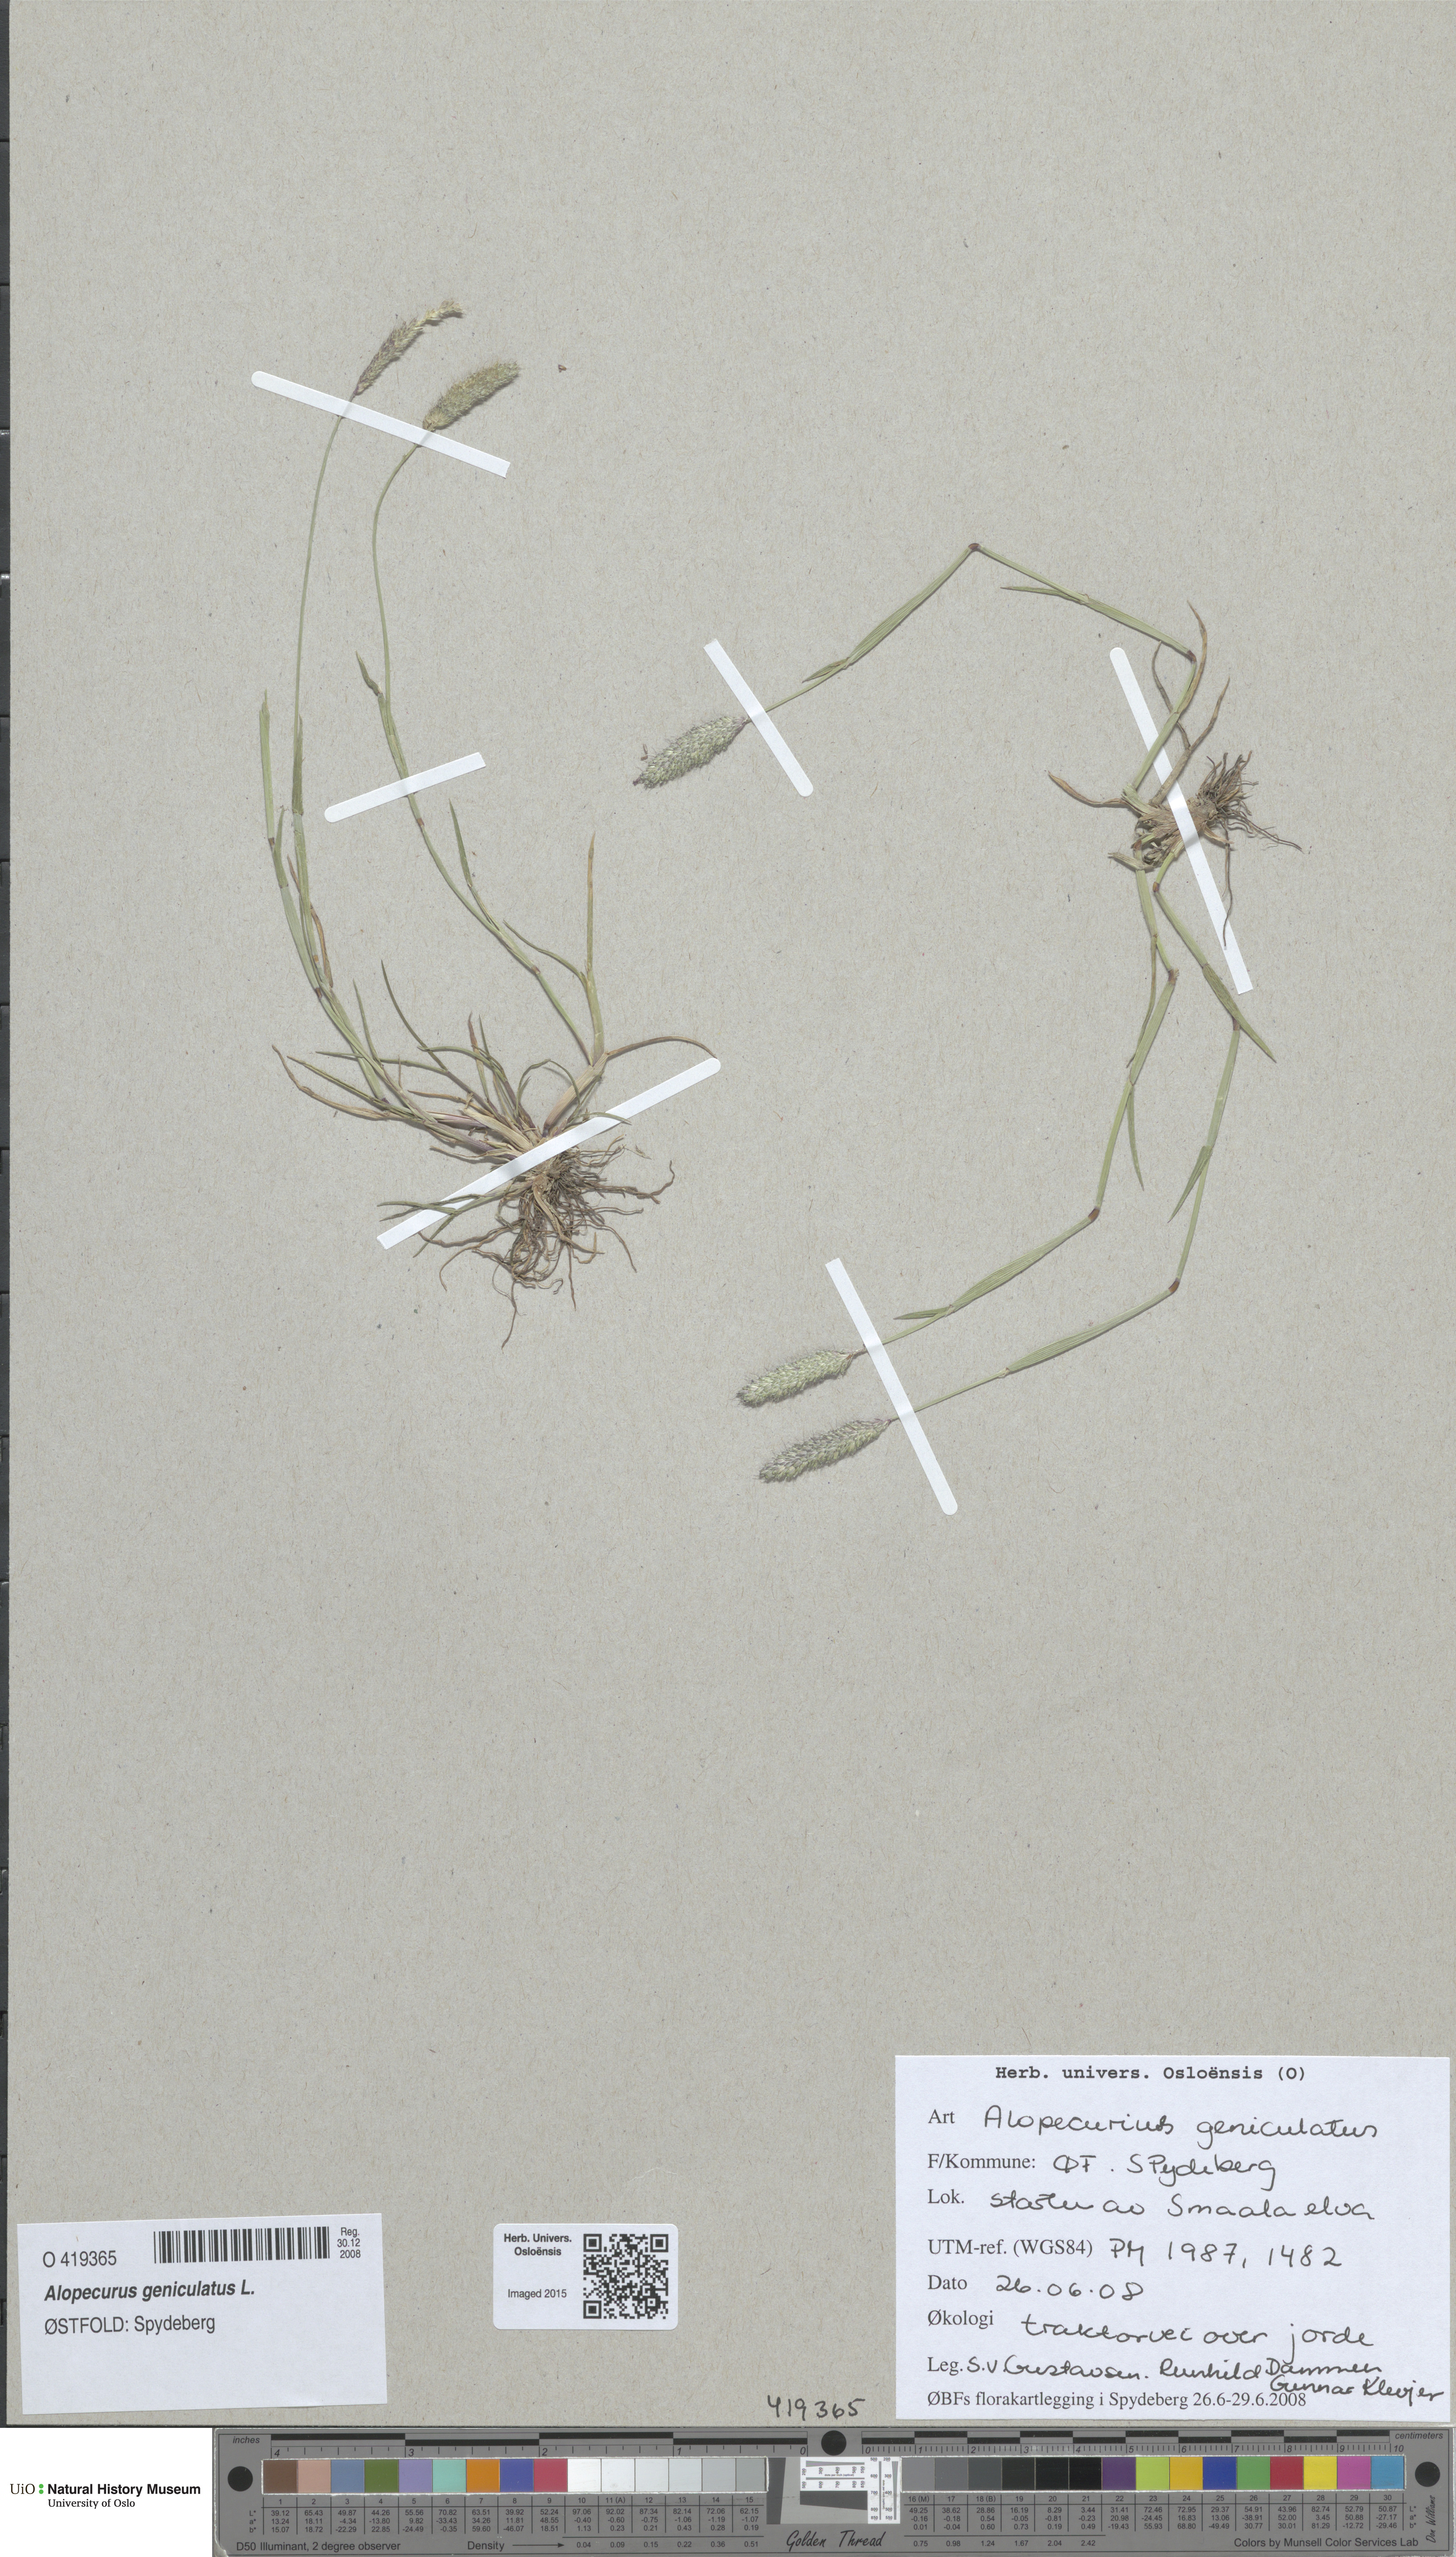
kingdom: Plantae
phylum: Tracheophyta
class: Liliopsida
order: Poales
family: Poaceae
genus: Alopecurus
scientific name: Alopecurus geniculatus
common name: Water foxtail
